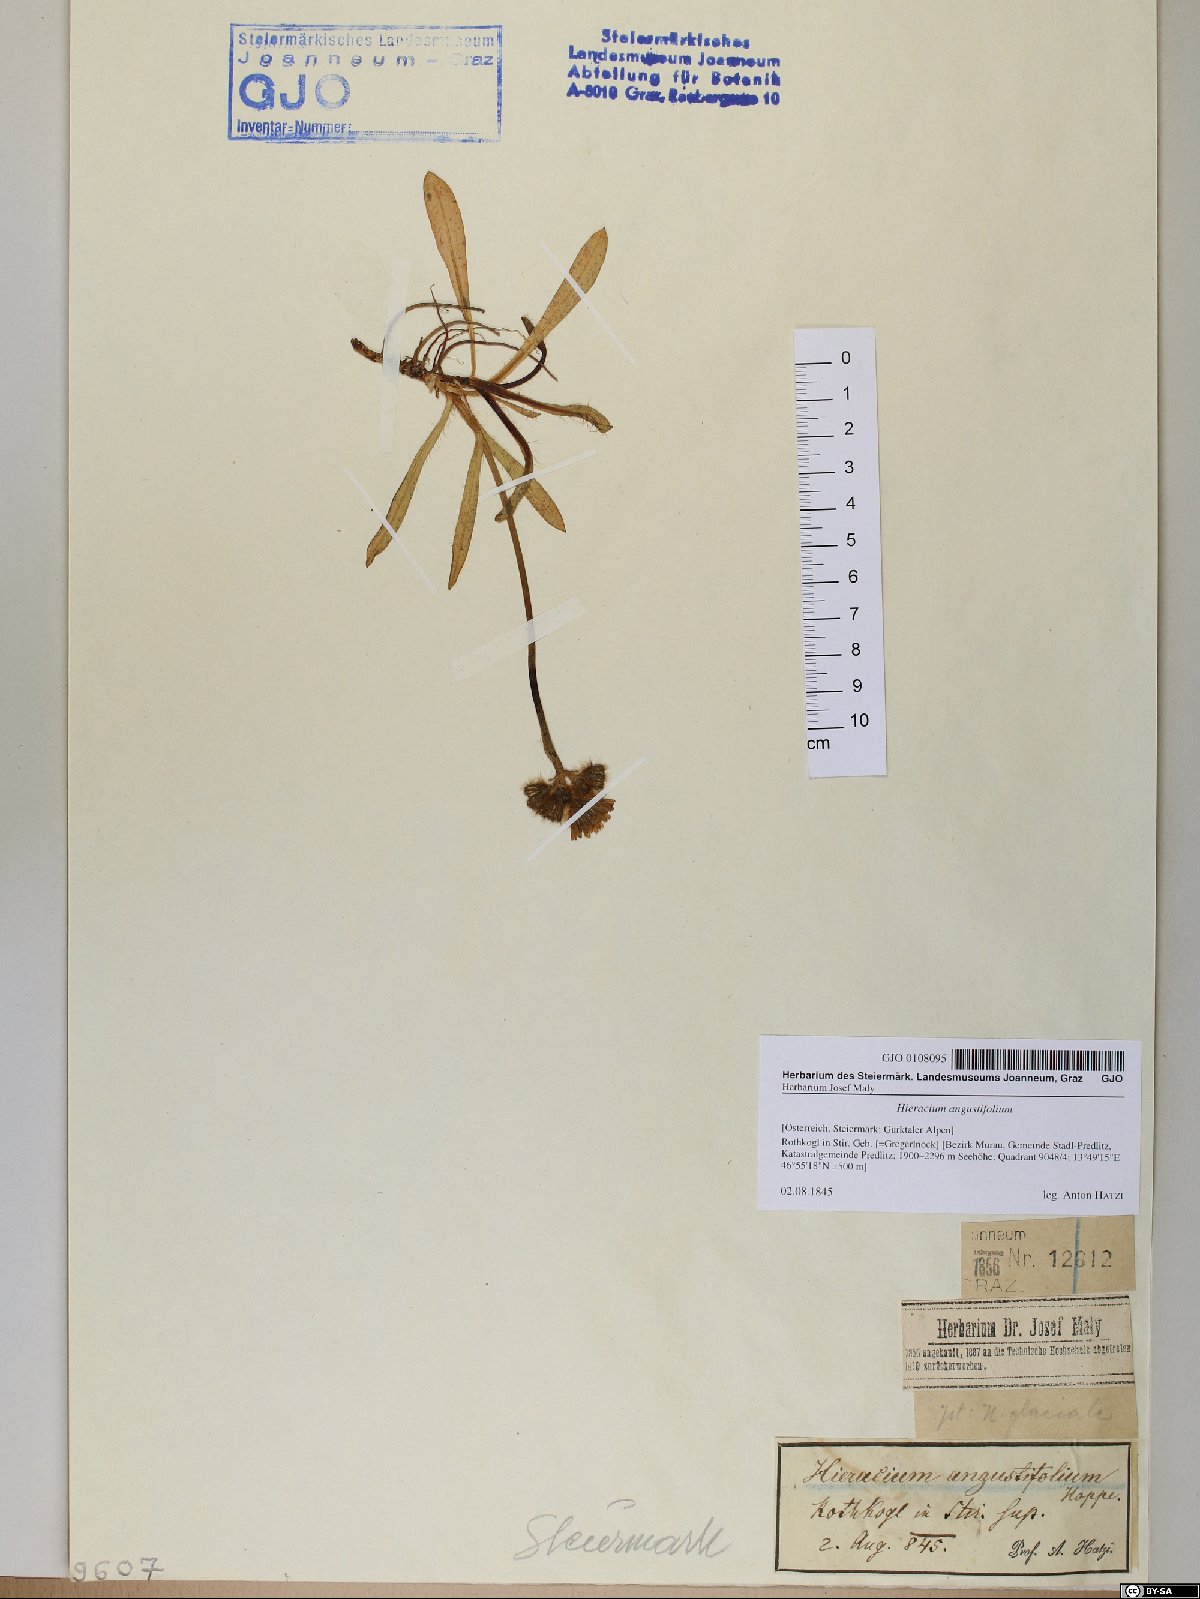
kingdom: Plantae
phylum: Tracheophyta
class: Magnoliopsida
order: Asterales
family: Asteraceae
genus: Pilosella
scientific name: Pilosella glacialis
